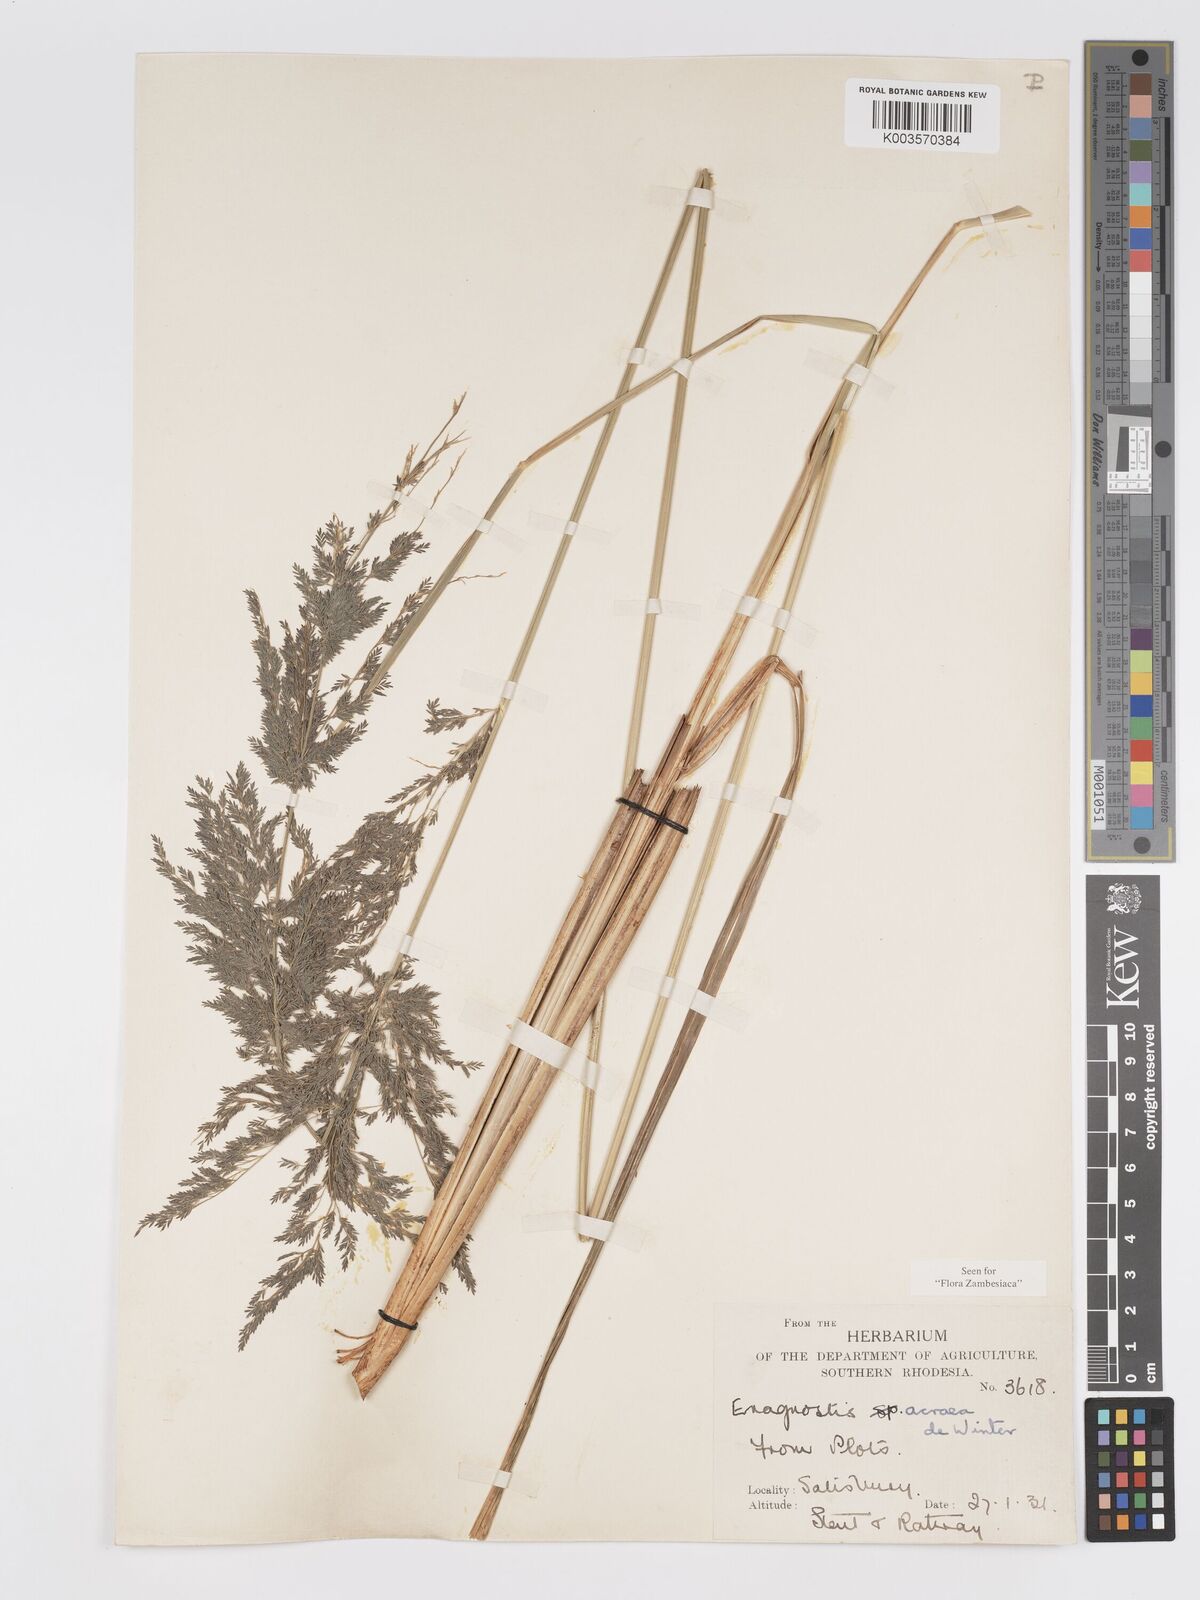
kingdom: Plantae
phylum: Tracheophyta
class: Liliopsida
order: Poales
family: Poaceae
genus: Eragrostis
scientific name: Eragrostis acraea
